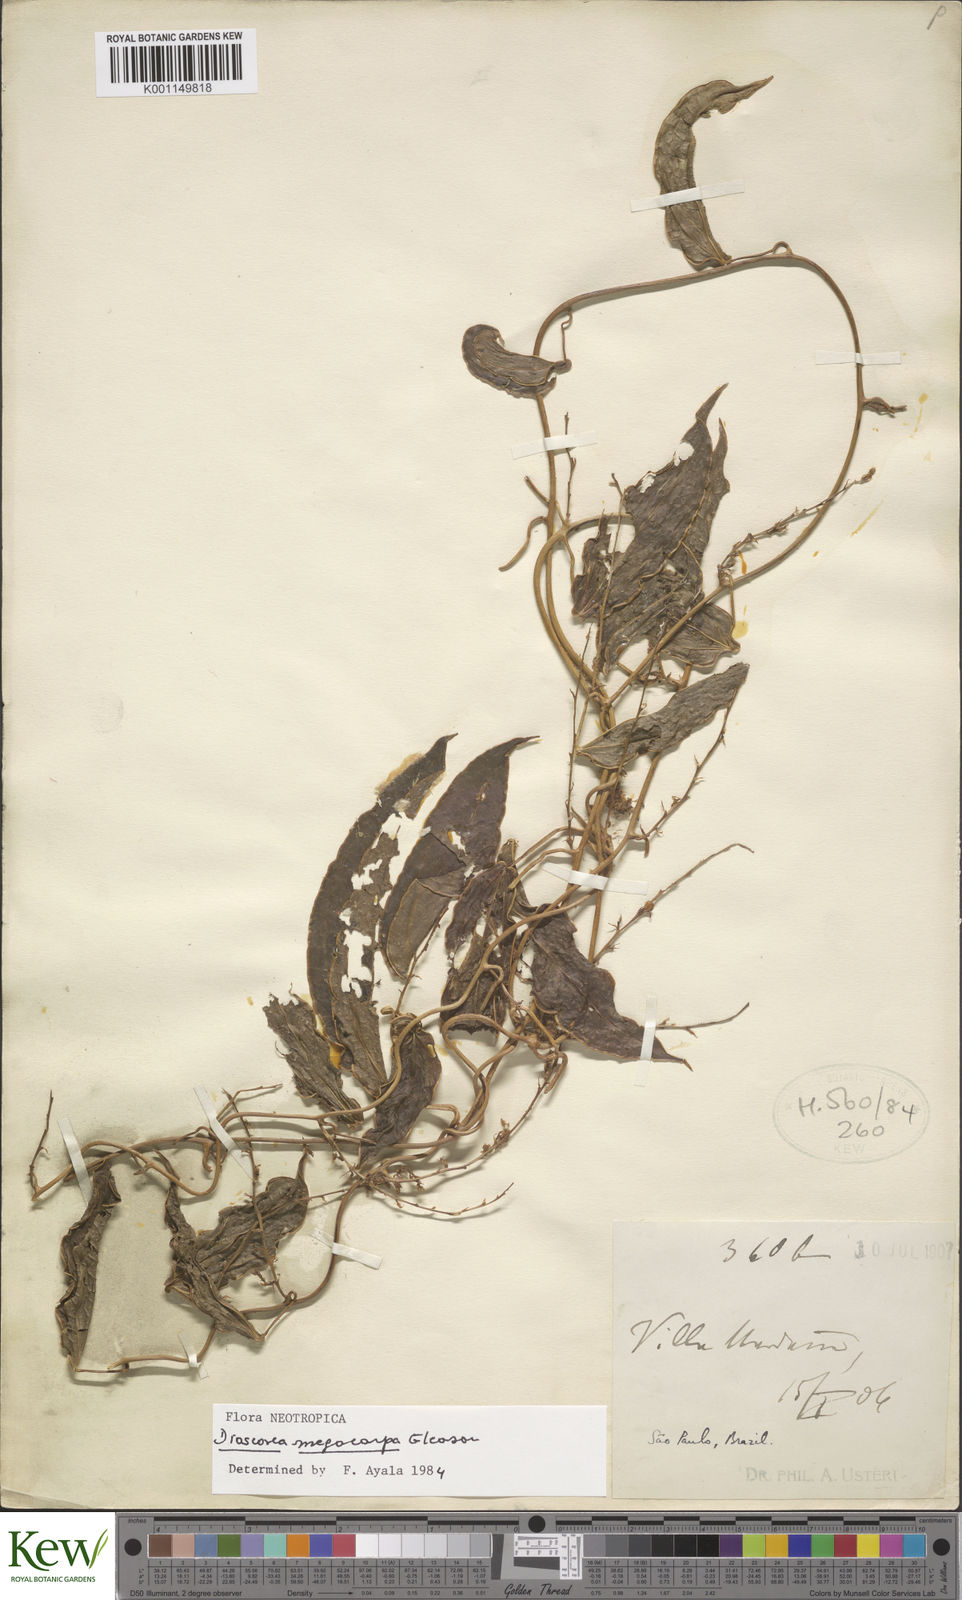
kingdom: Plantae
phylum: Tracheophyta
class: Liliopsida
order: Dioscoreales
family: Dioscoreaceae
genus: Dioscorea
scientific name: Dioscorea olfersiana
